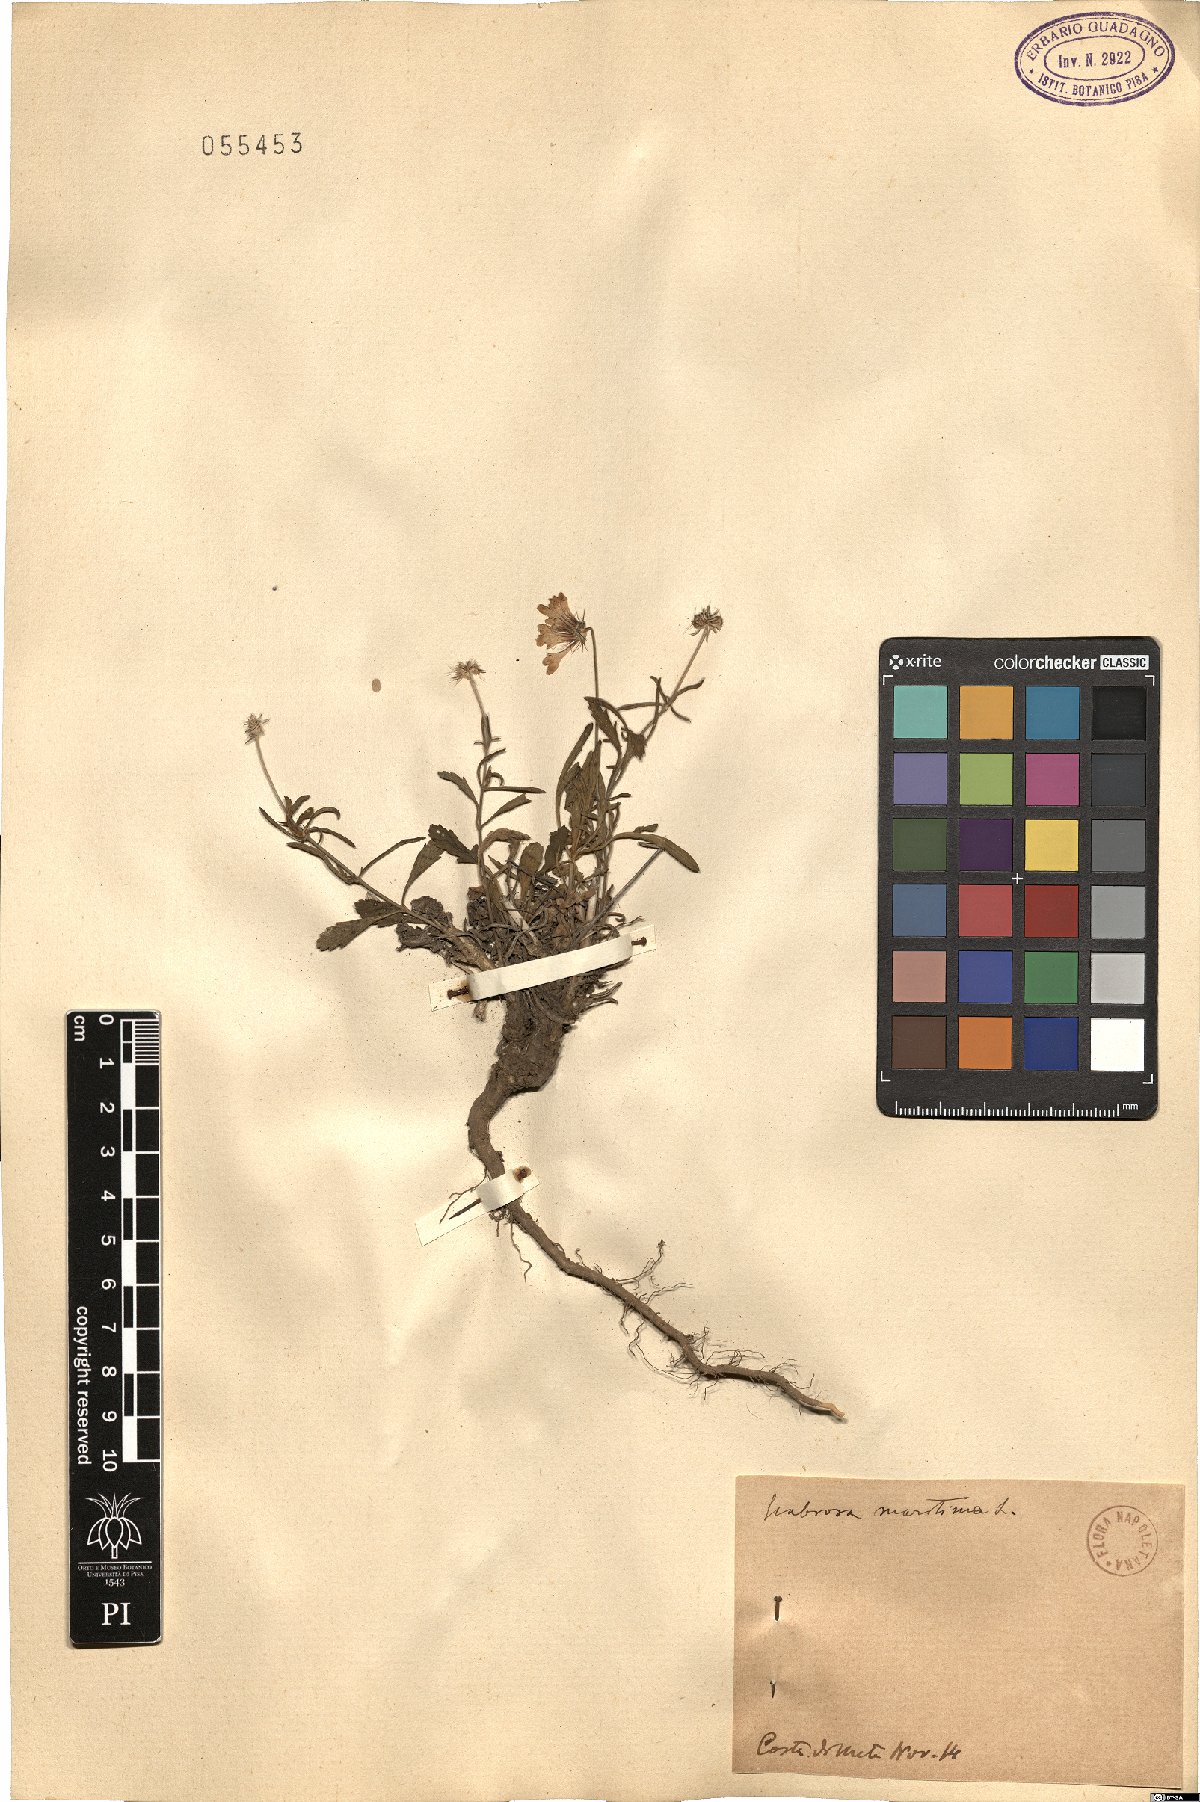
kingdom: Plantae
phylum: Tracheophyta
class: Magnoliopsida
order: Dipsacales
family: Caprifoliaceae
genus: Sixalix
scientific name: Sixalix maritima
